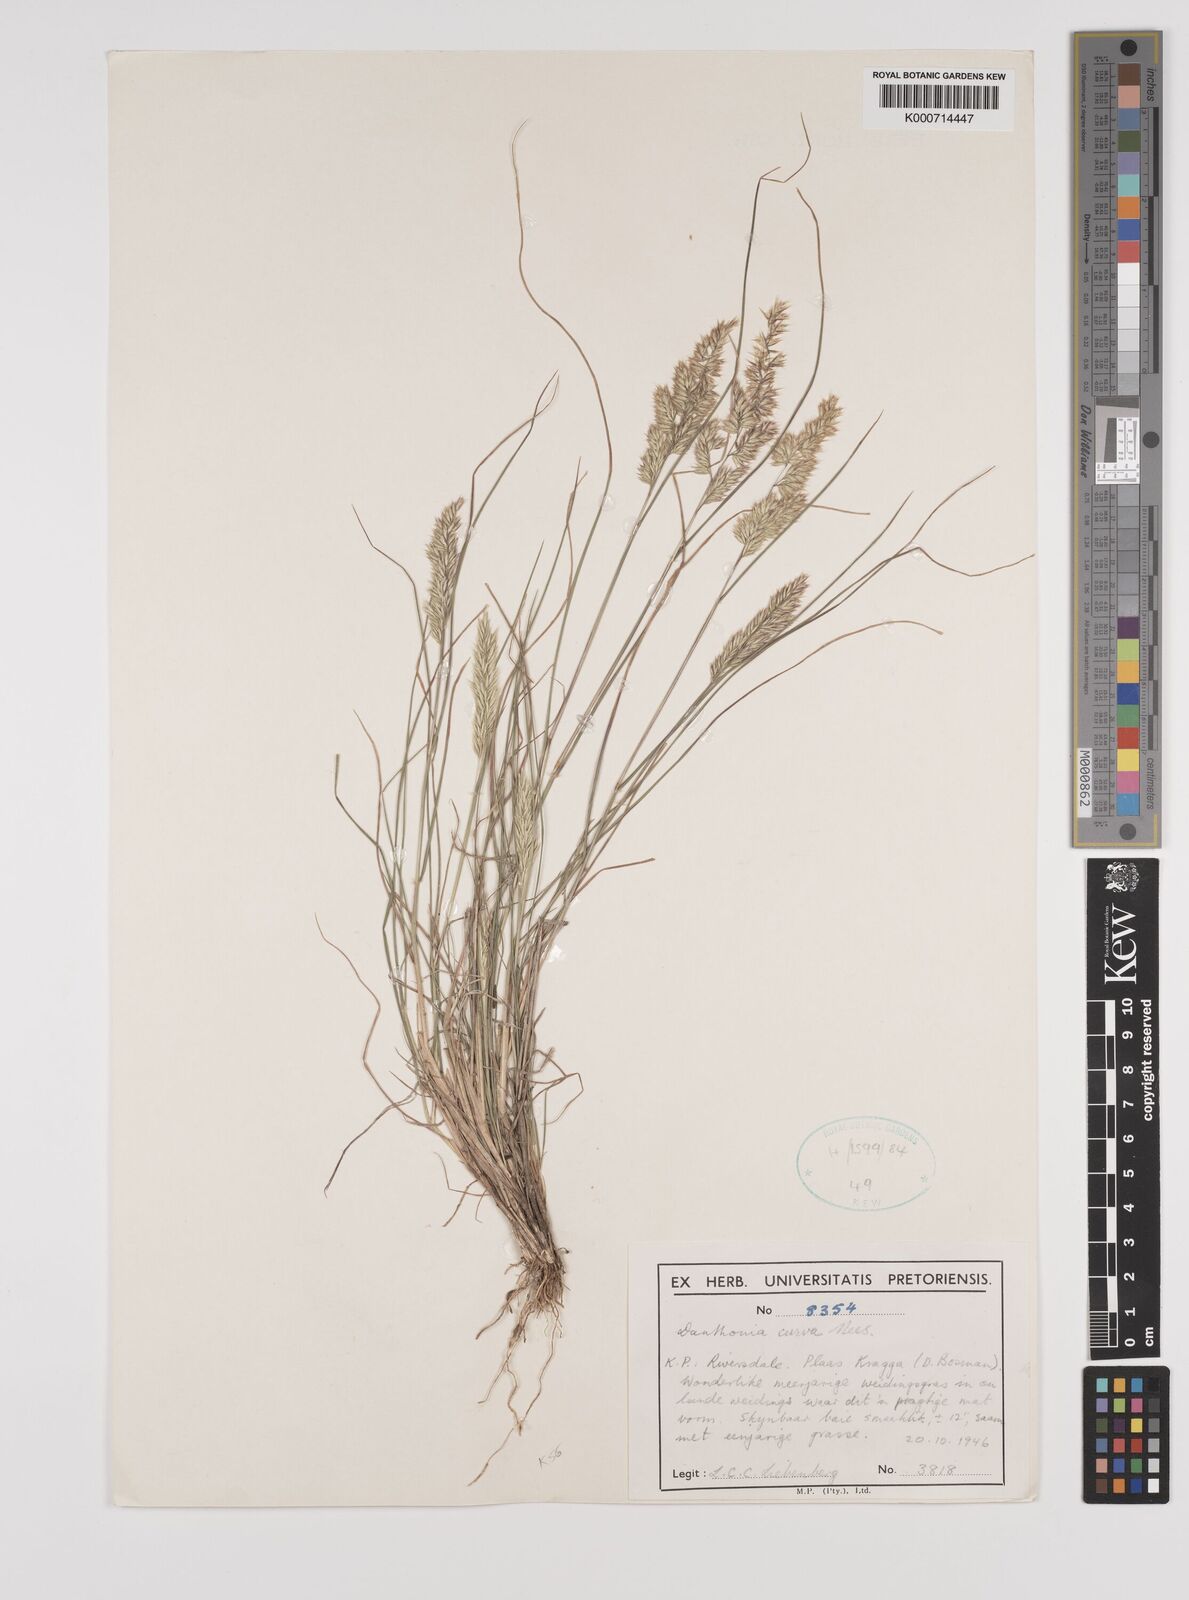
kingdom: Plantae
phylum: Tracheophyta
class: Liliopsida
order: Poales
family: Poaceae
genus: Rytidosperma
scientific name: Rytidosperma
